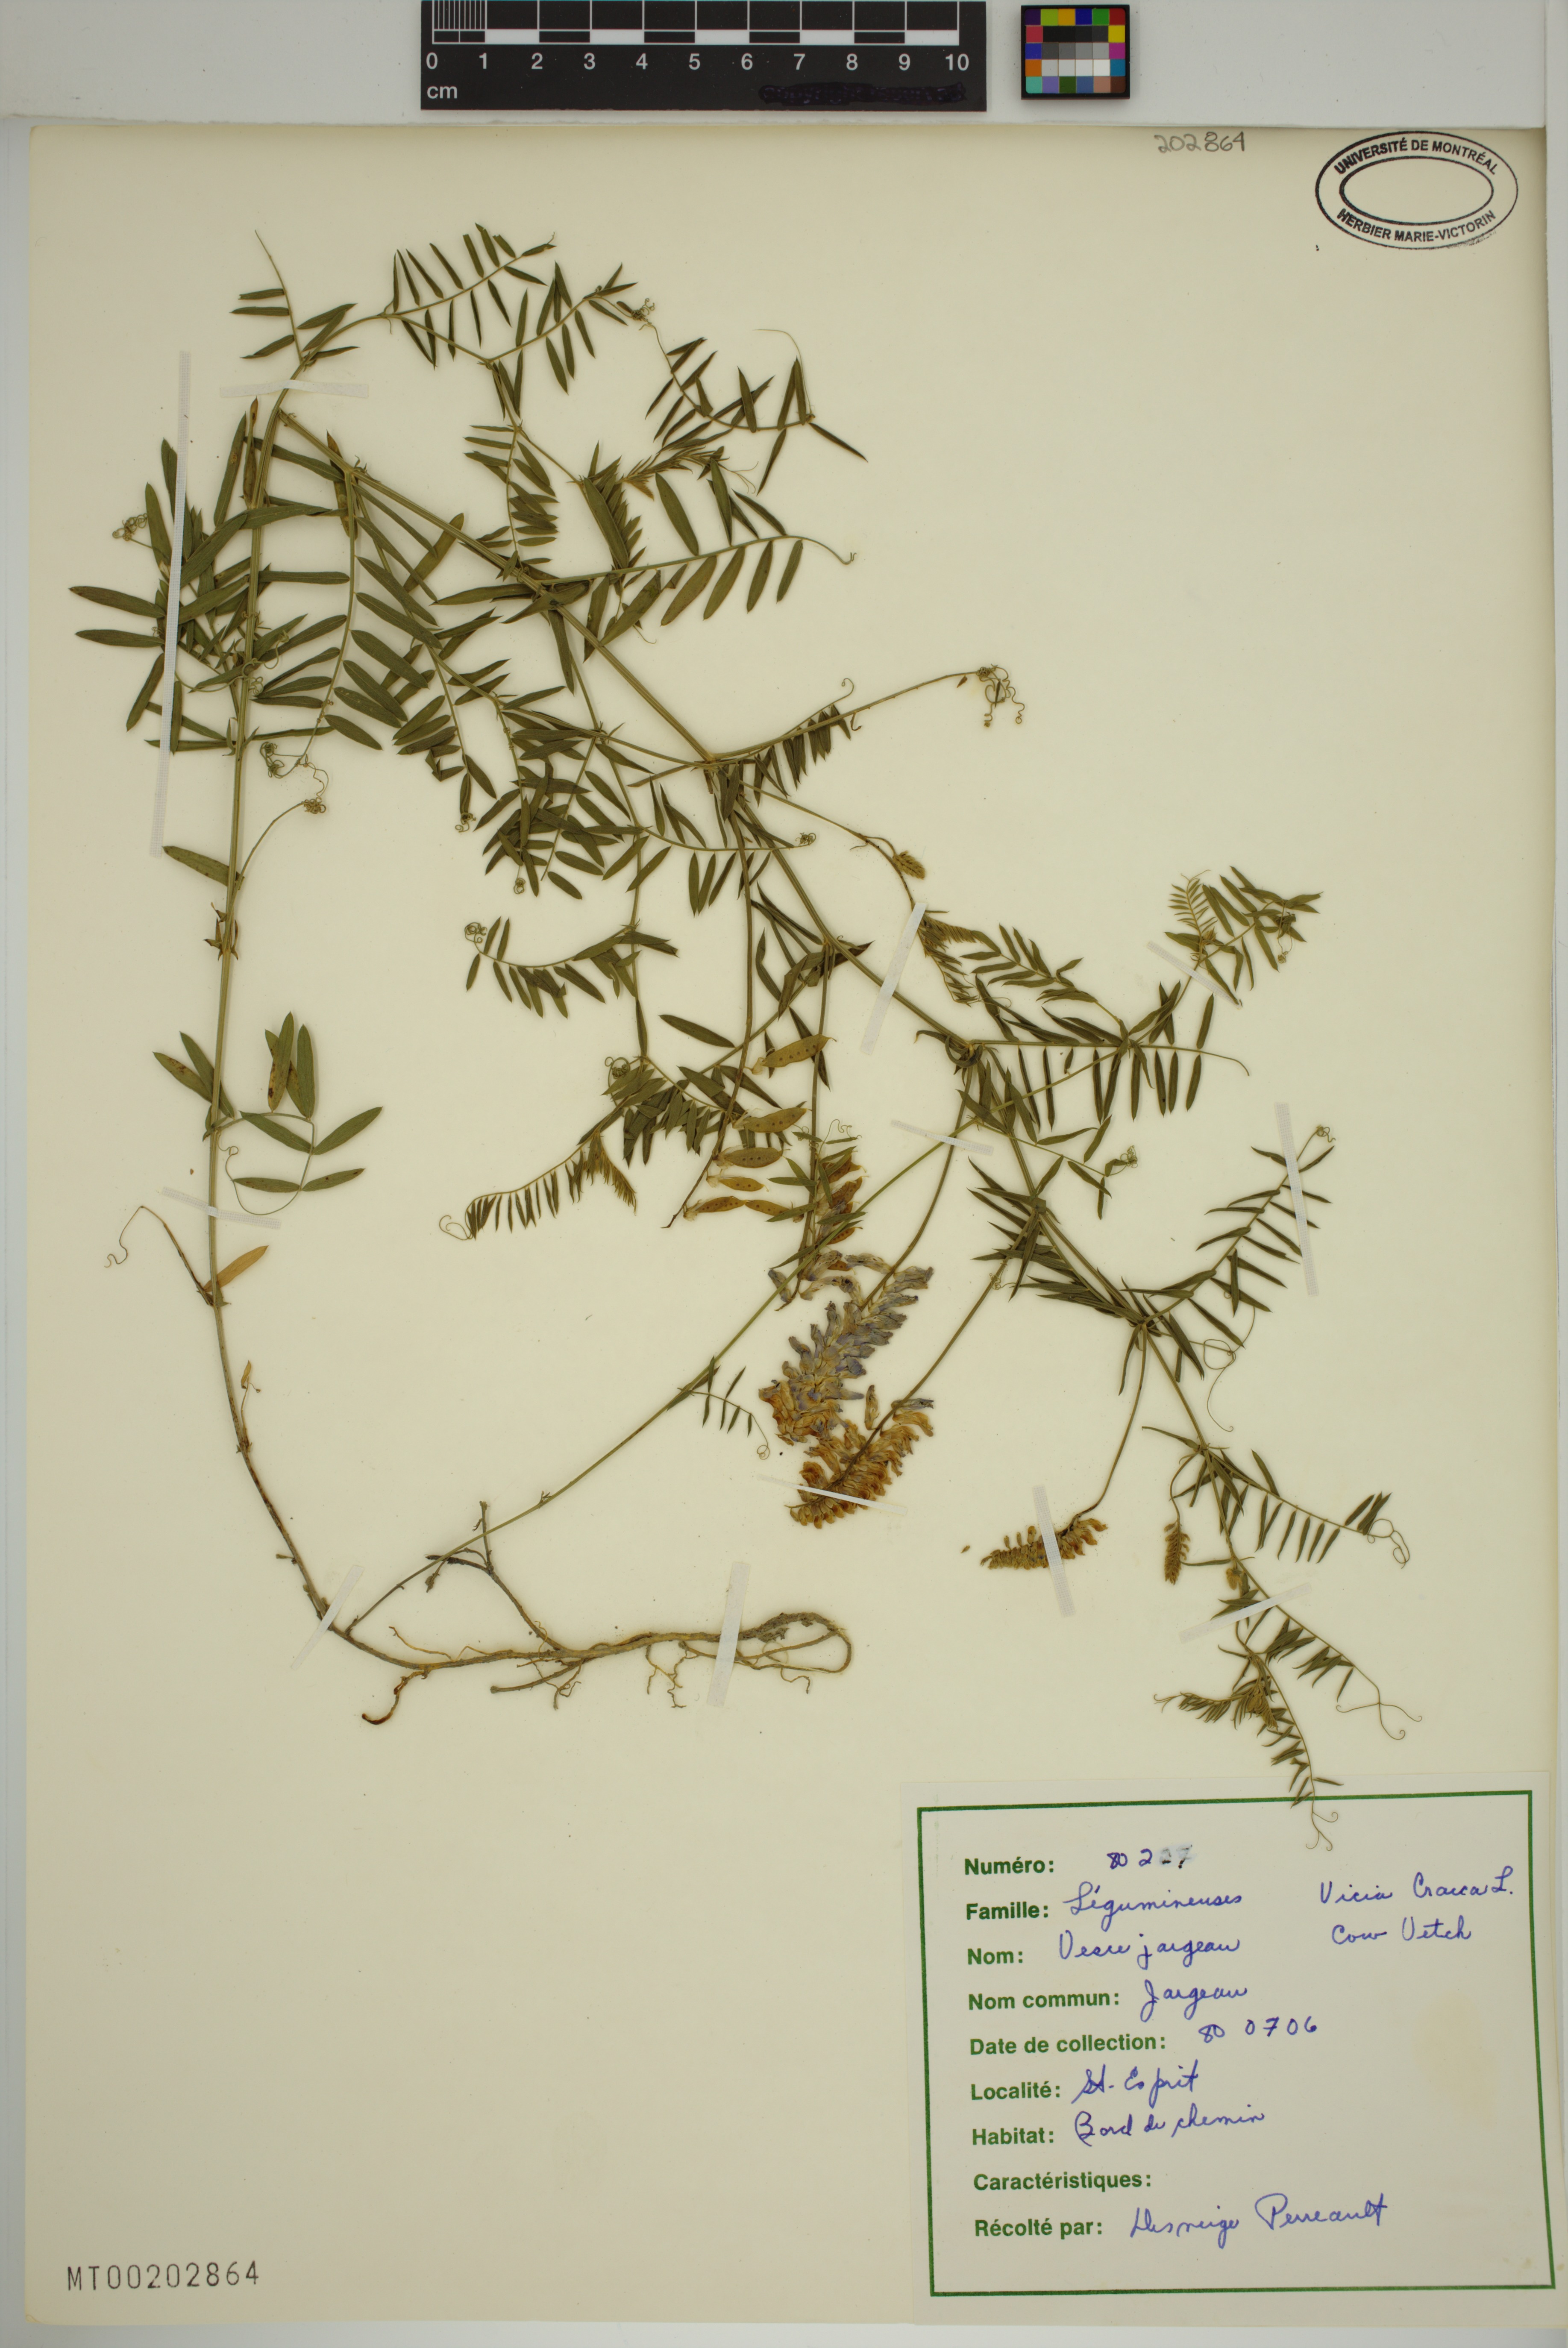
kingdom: Plantae
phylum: Tracheophyta
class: Magnoliopsida
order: Fabales
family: Fabaceae
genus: Vicia
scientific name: Vicia cracca
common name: Bird vetch
